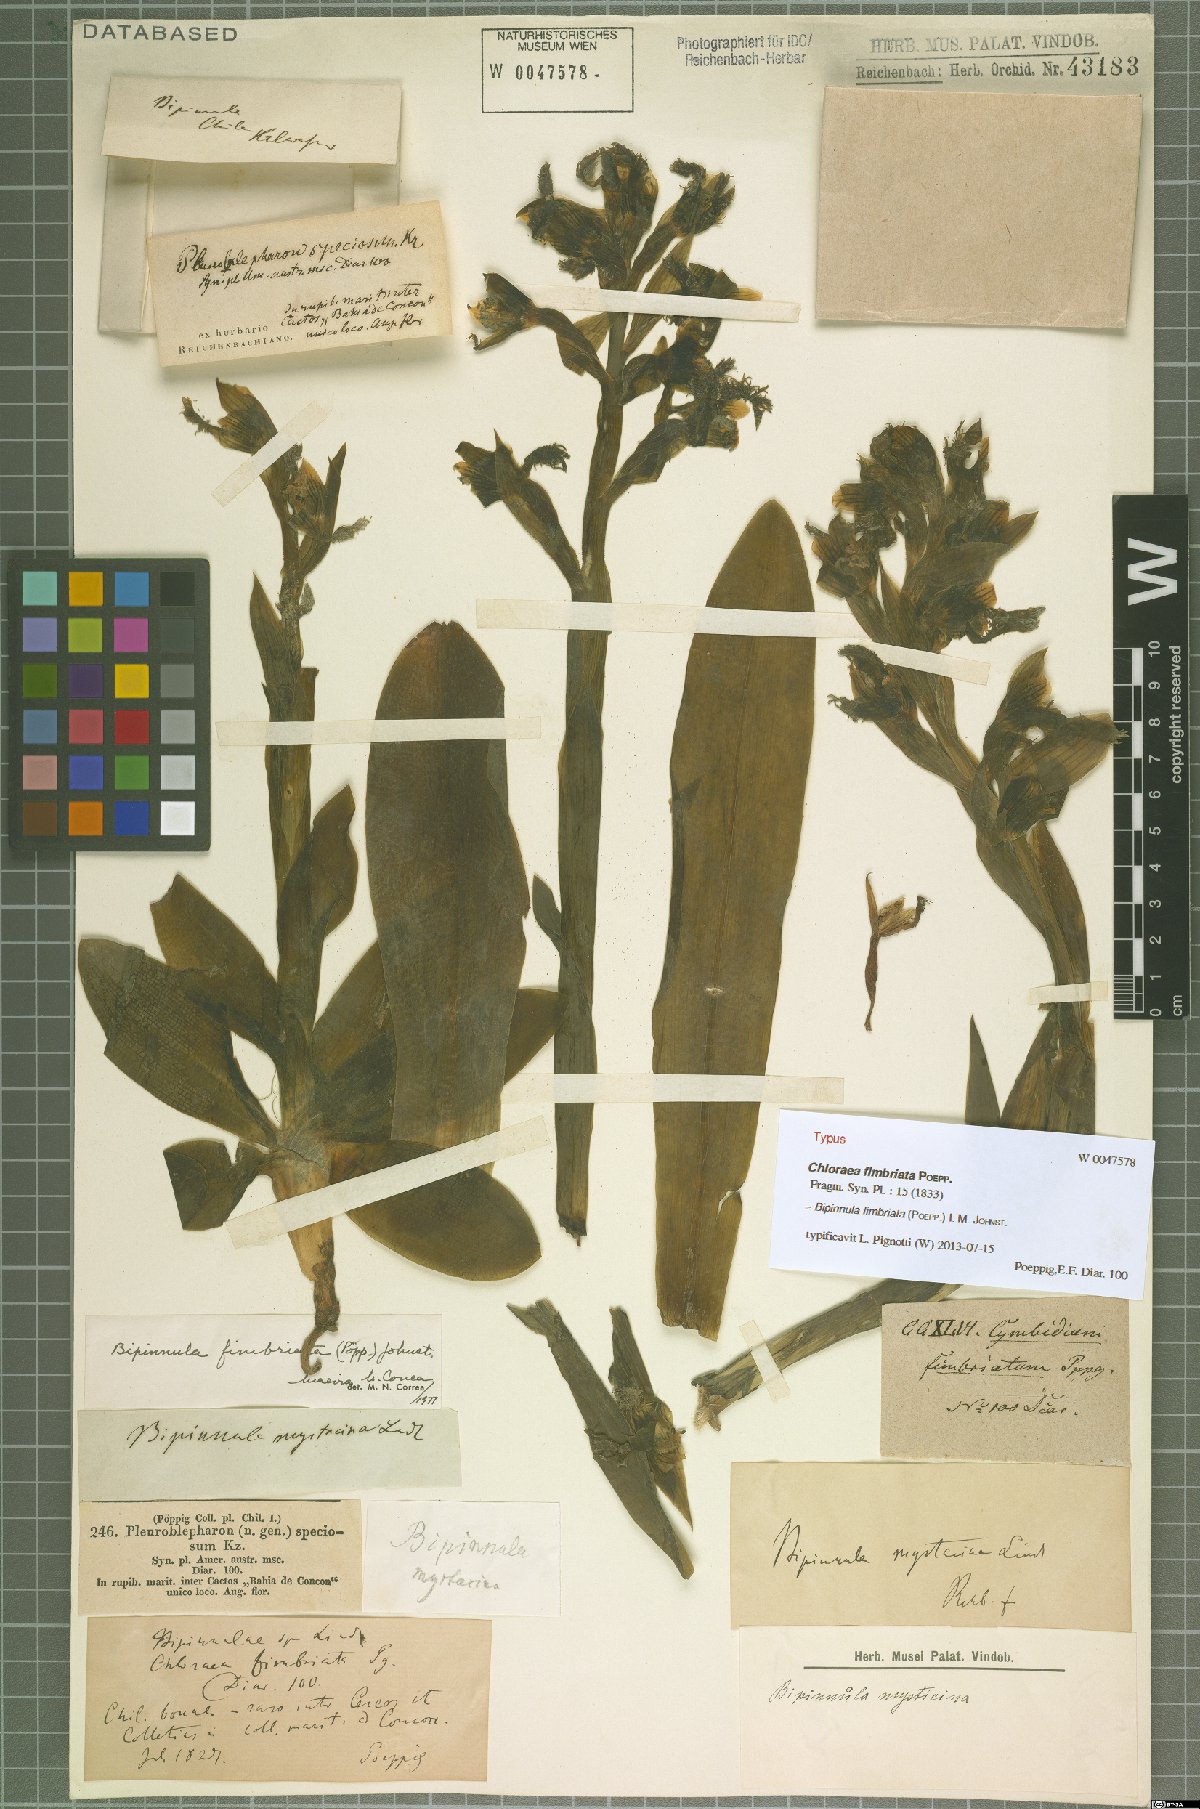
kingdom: Plantae
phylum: Tracheophyta
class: Liliopsida
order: Asparagales
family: Orchidaceae
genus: Bipinnula
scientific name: Bipinnula fimbriata
